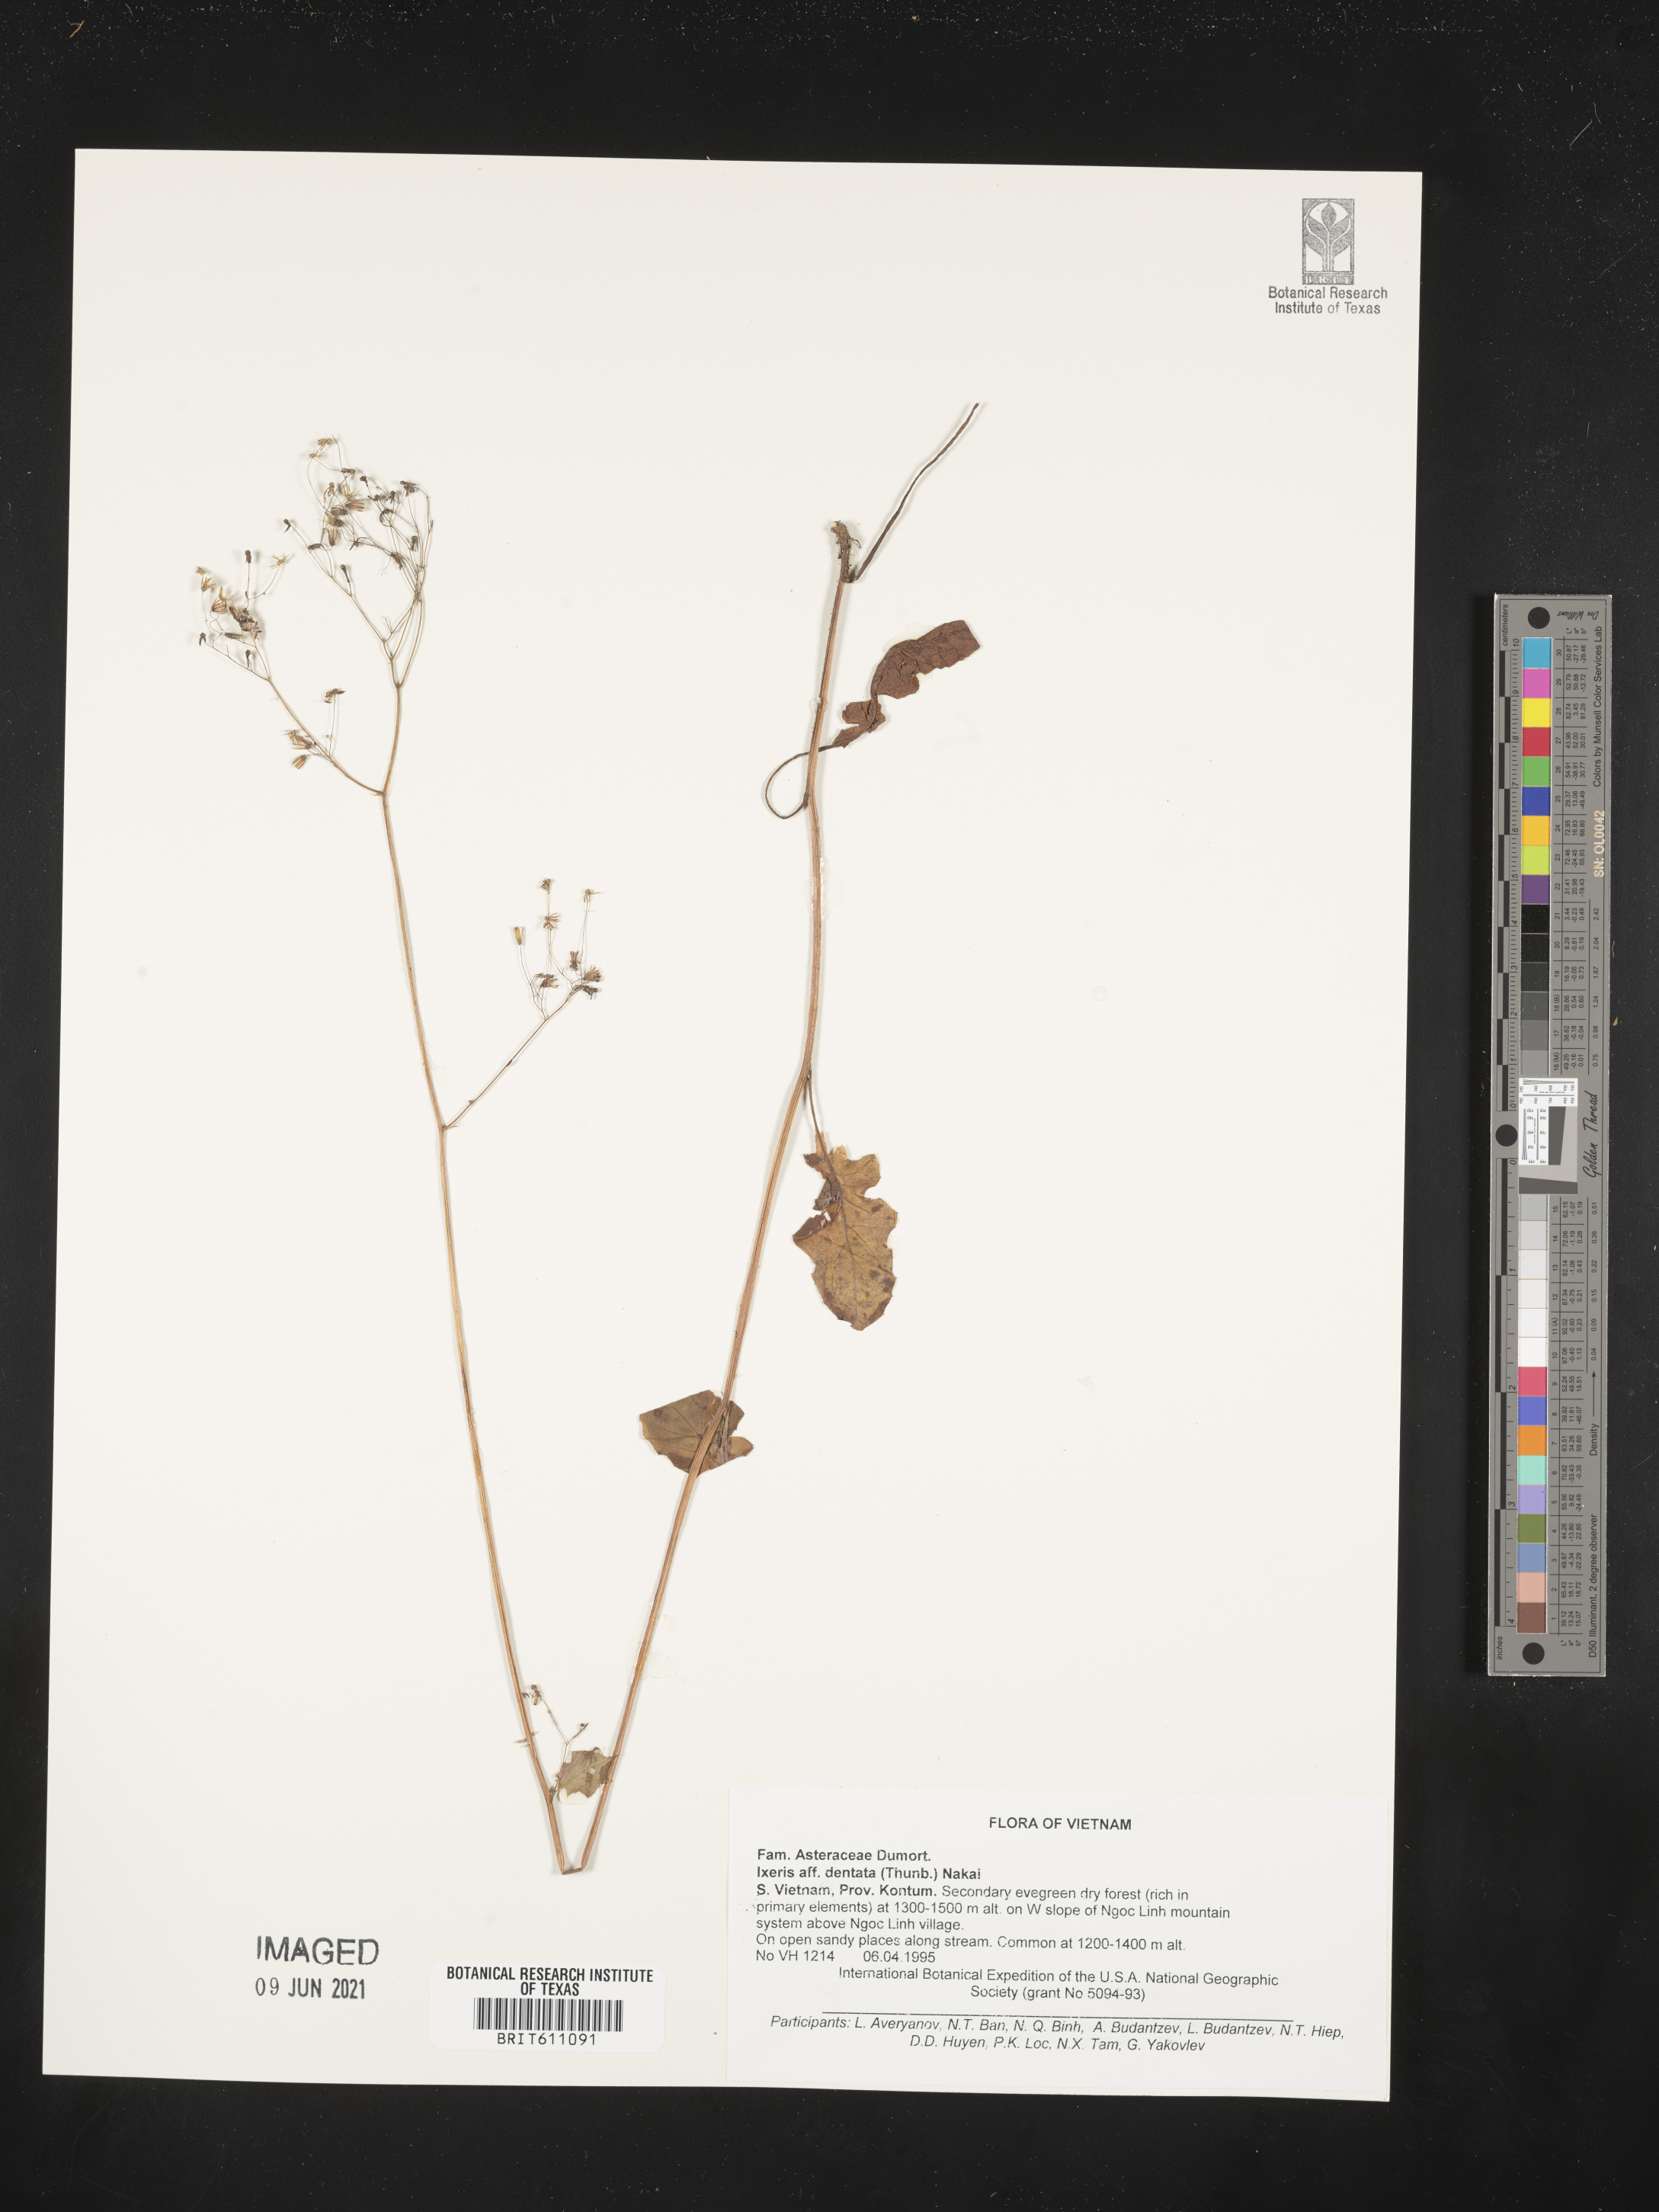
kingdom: Plantae
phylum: Tracheophyta
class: Magnoliopsida
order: Asterales
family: Asteraceae
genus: Ixeridium
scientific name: Ixeridium dentatum
